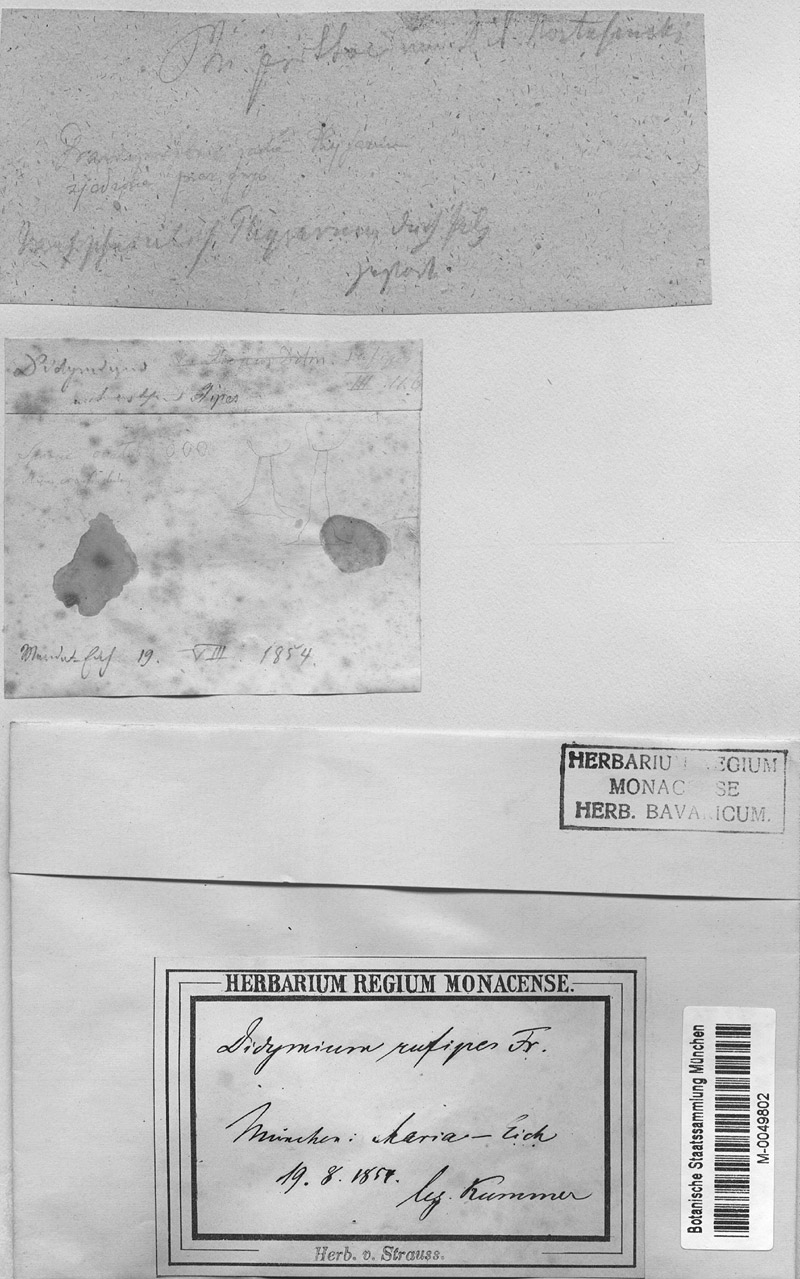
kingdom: Protozoa
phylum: Mycetozoa
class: Myxomycetes
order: Physarales
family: Physaraceae
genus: Physarum
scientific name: Physarum psittacinum
